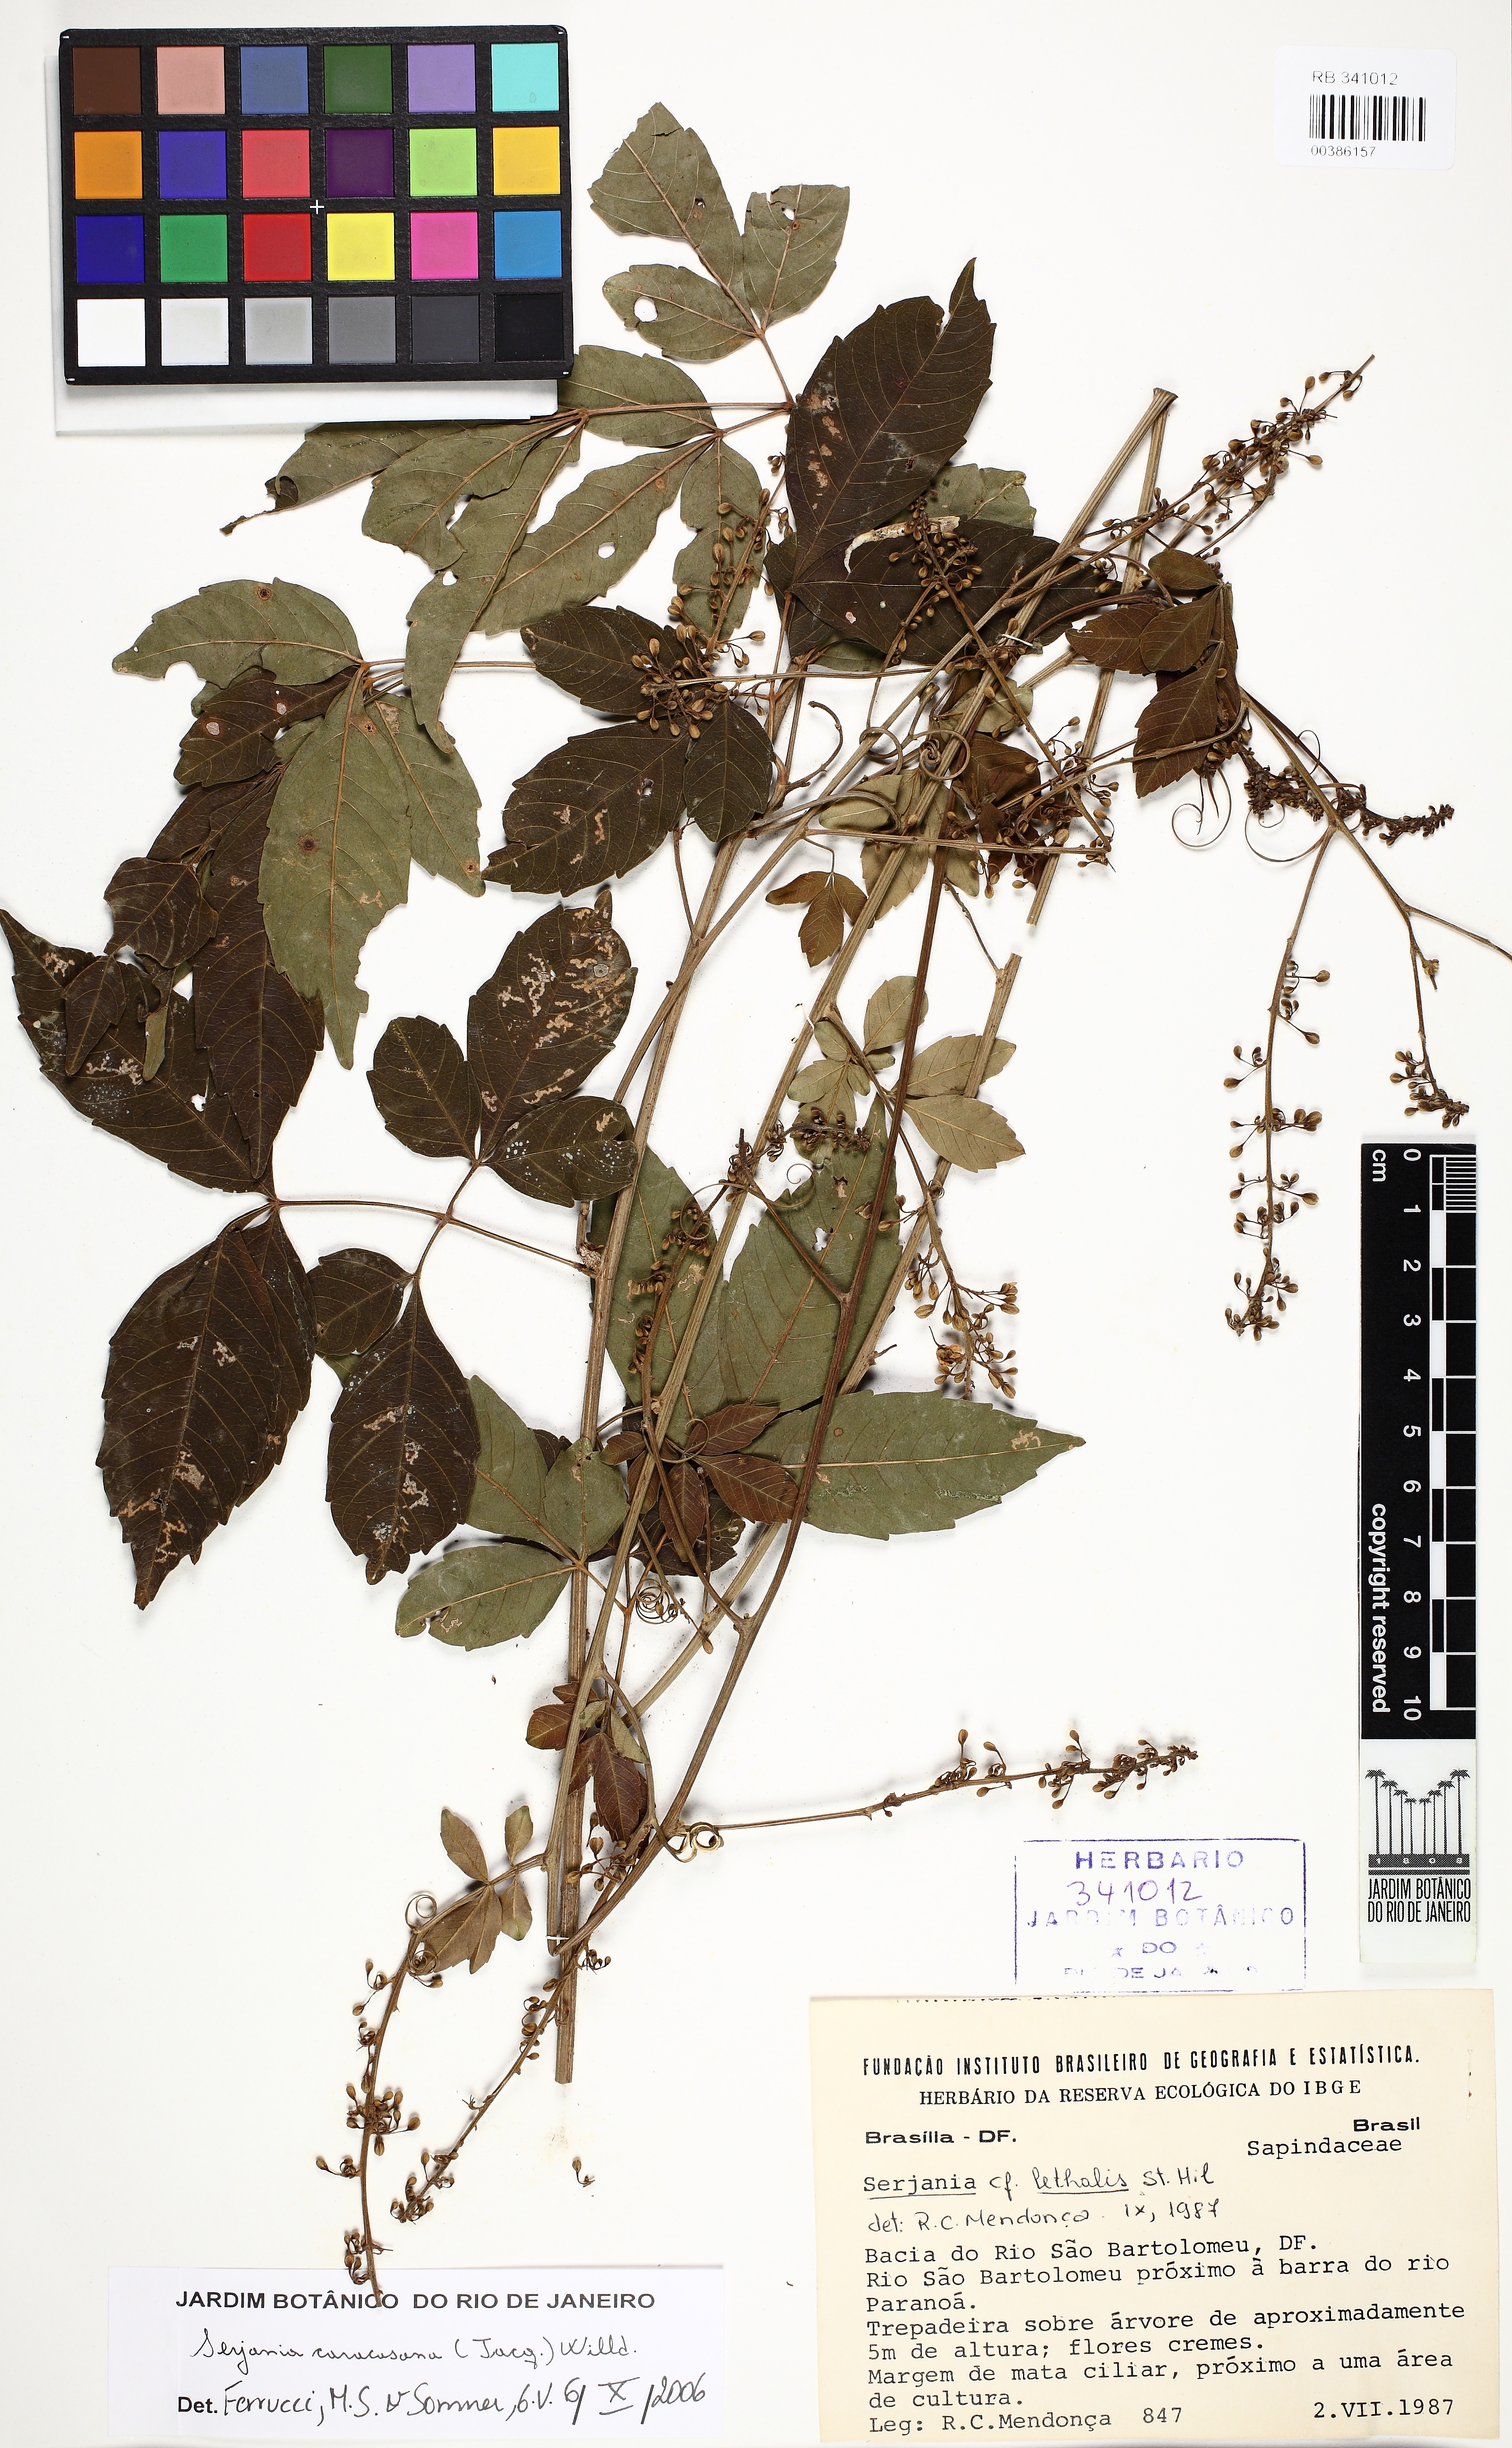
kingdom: Plantae
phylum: Tracheophyta
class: Magnoliopsida
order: Sapindales
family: Sapindaceae
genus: Serjania
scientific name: Serjania lethalis
